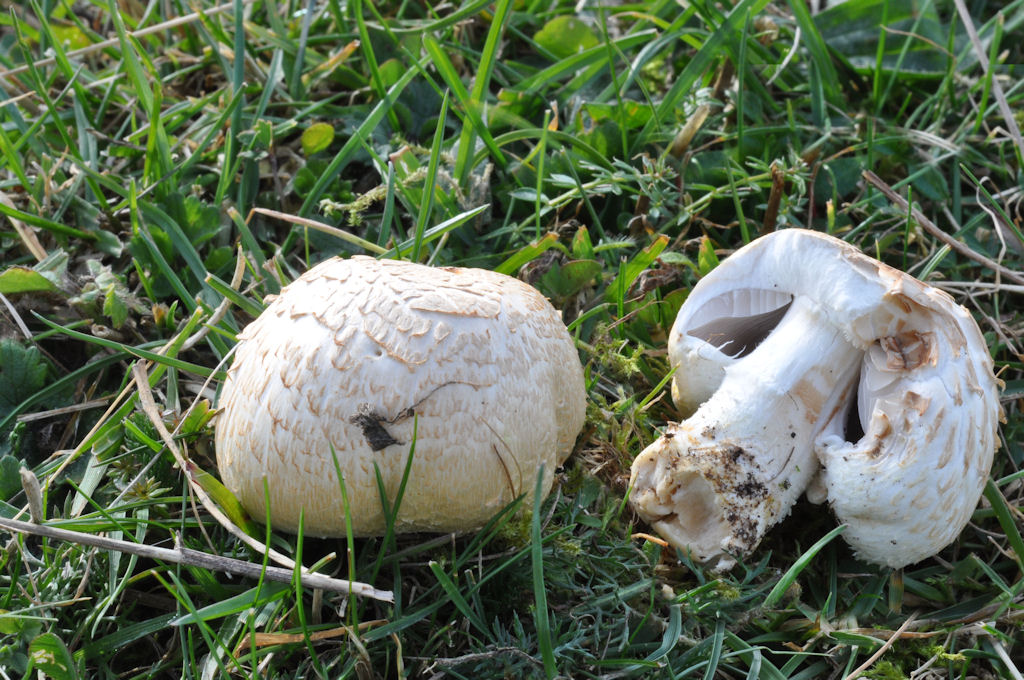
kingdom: Fungi
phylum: Basidiomycota
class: Agaricomycetes
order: Agaricales
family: Agaricaceae
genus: Agaricus
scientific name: Agaricus litoralis
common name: kyst-champignon
